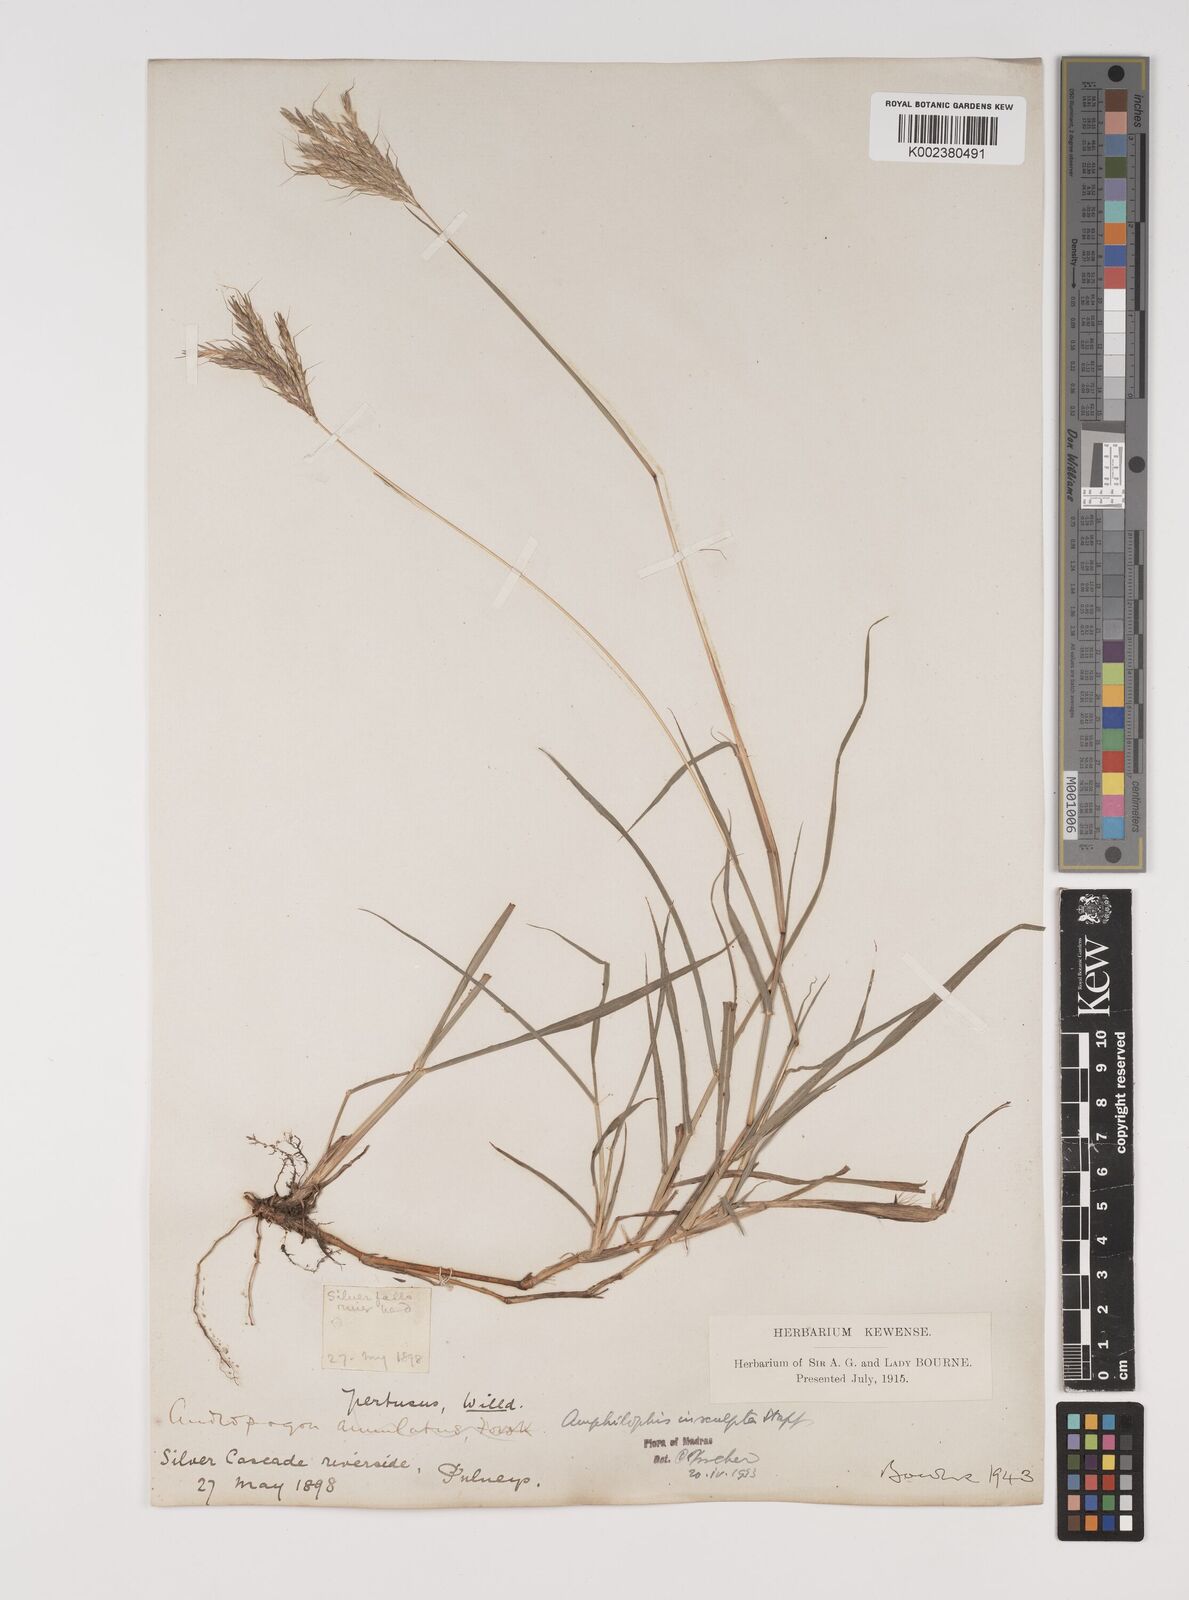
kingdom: Plantae
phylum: Tracheophyta
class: Liliopsida
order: Poales
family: Poaceae
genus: Bothriochloa
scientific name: Bothriochloa insculpta
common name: Creeping-bluegrass
